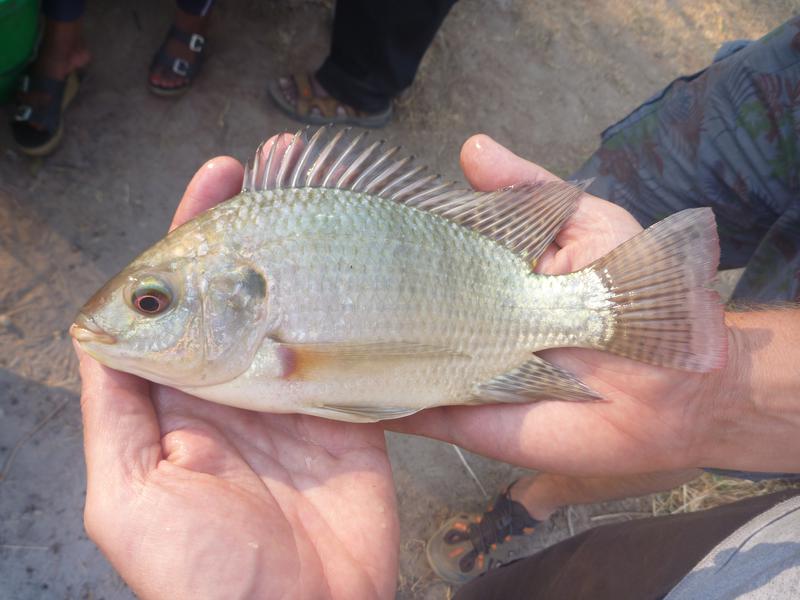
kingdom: Animalia
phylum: Chordata
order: Perciformes
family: Cichlidae
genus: Oreochromis
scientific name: Oreochromis niloticus
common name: Nile tilapia
